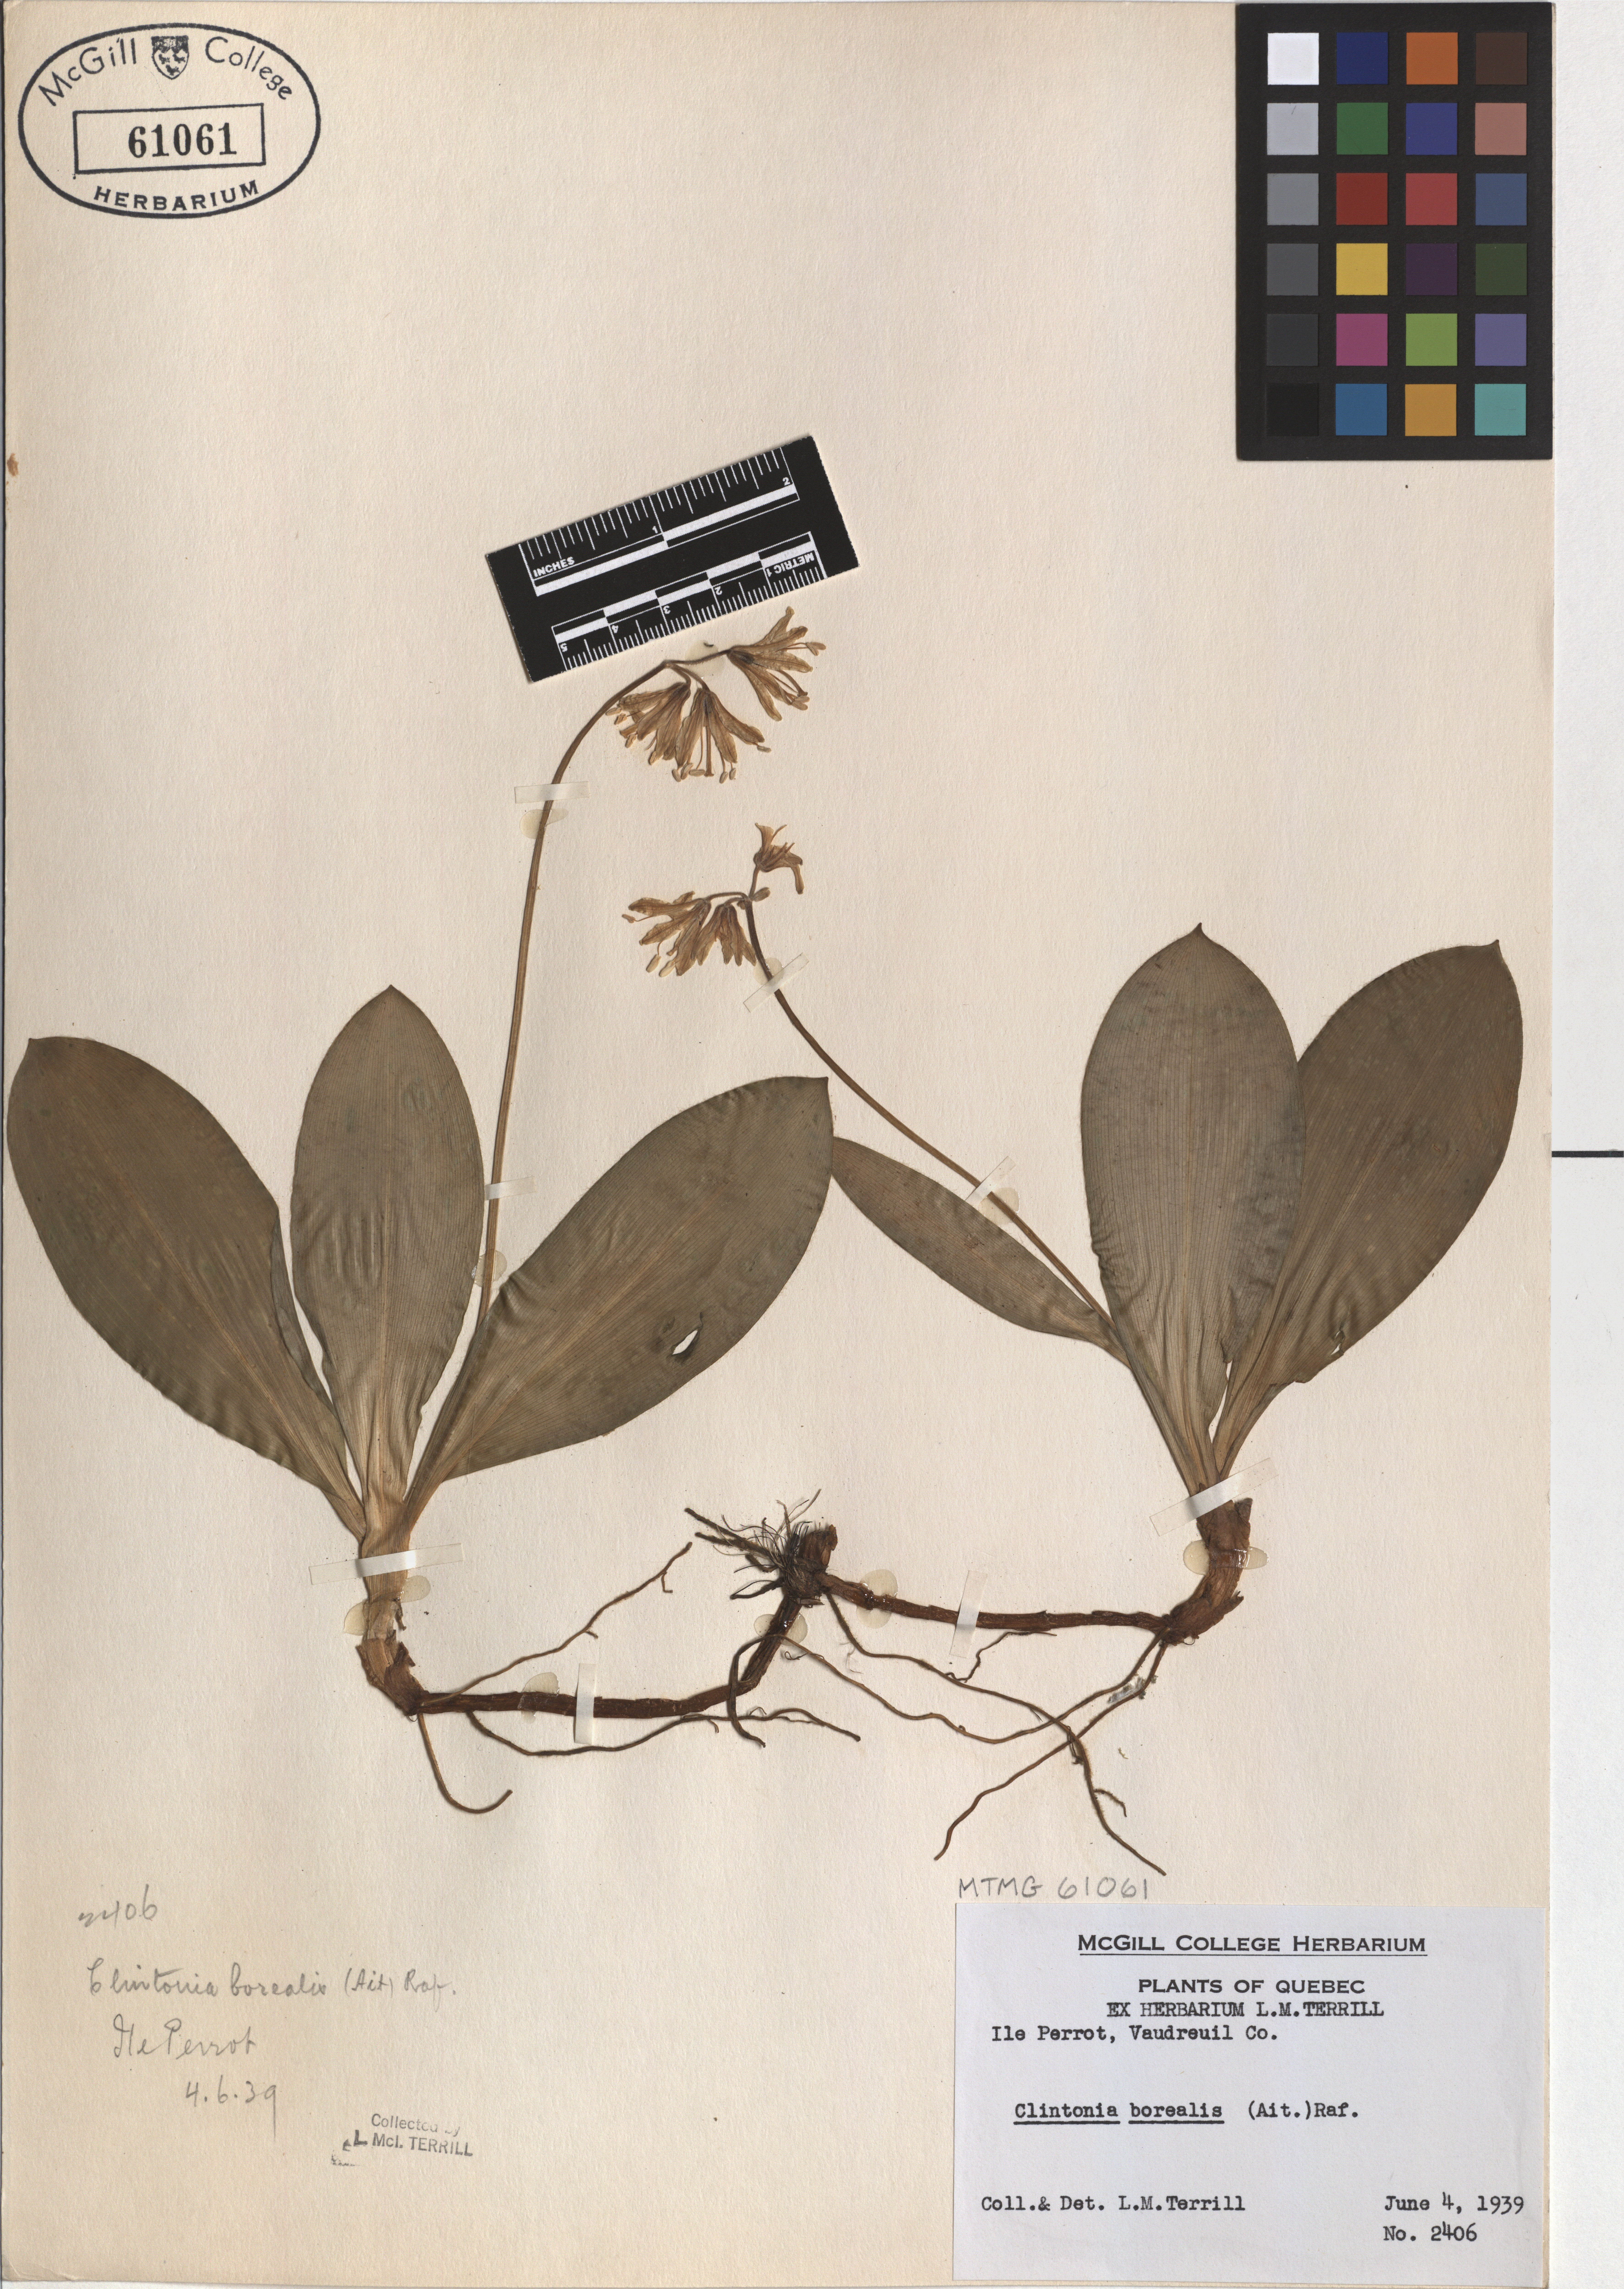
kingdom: Plantae
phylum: Tracheophyta
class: Liliopsida
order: Liliales
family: Liliaceae
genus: Clintonia
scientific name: Clintonia borealis
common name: Yellow clintonia
